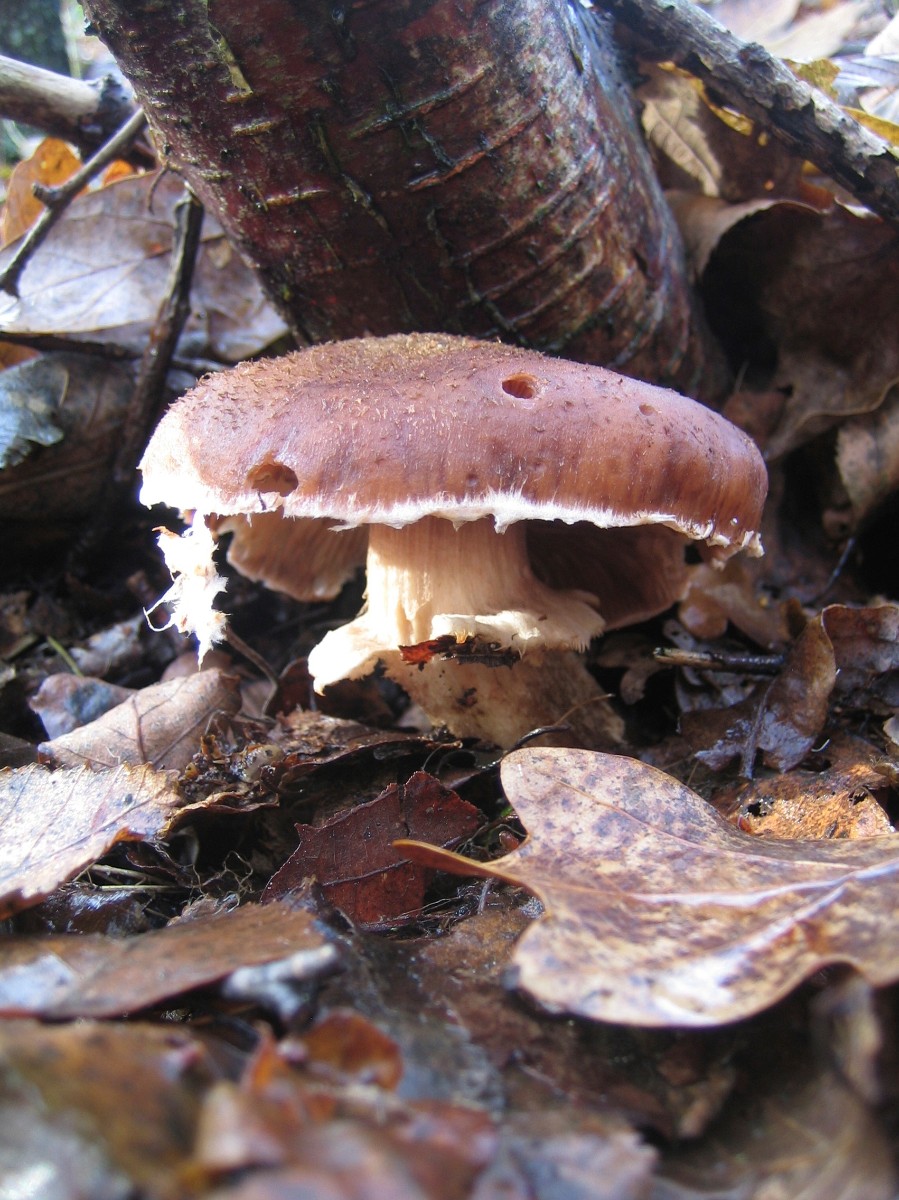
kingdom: Fungi
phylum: Basidiomycota
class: Agaricomycetes
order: Agaricales
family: Physalacriaceae
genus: Armillaria
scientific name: Armillaria ostoyae
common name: mørk honningsvamp
